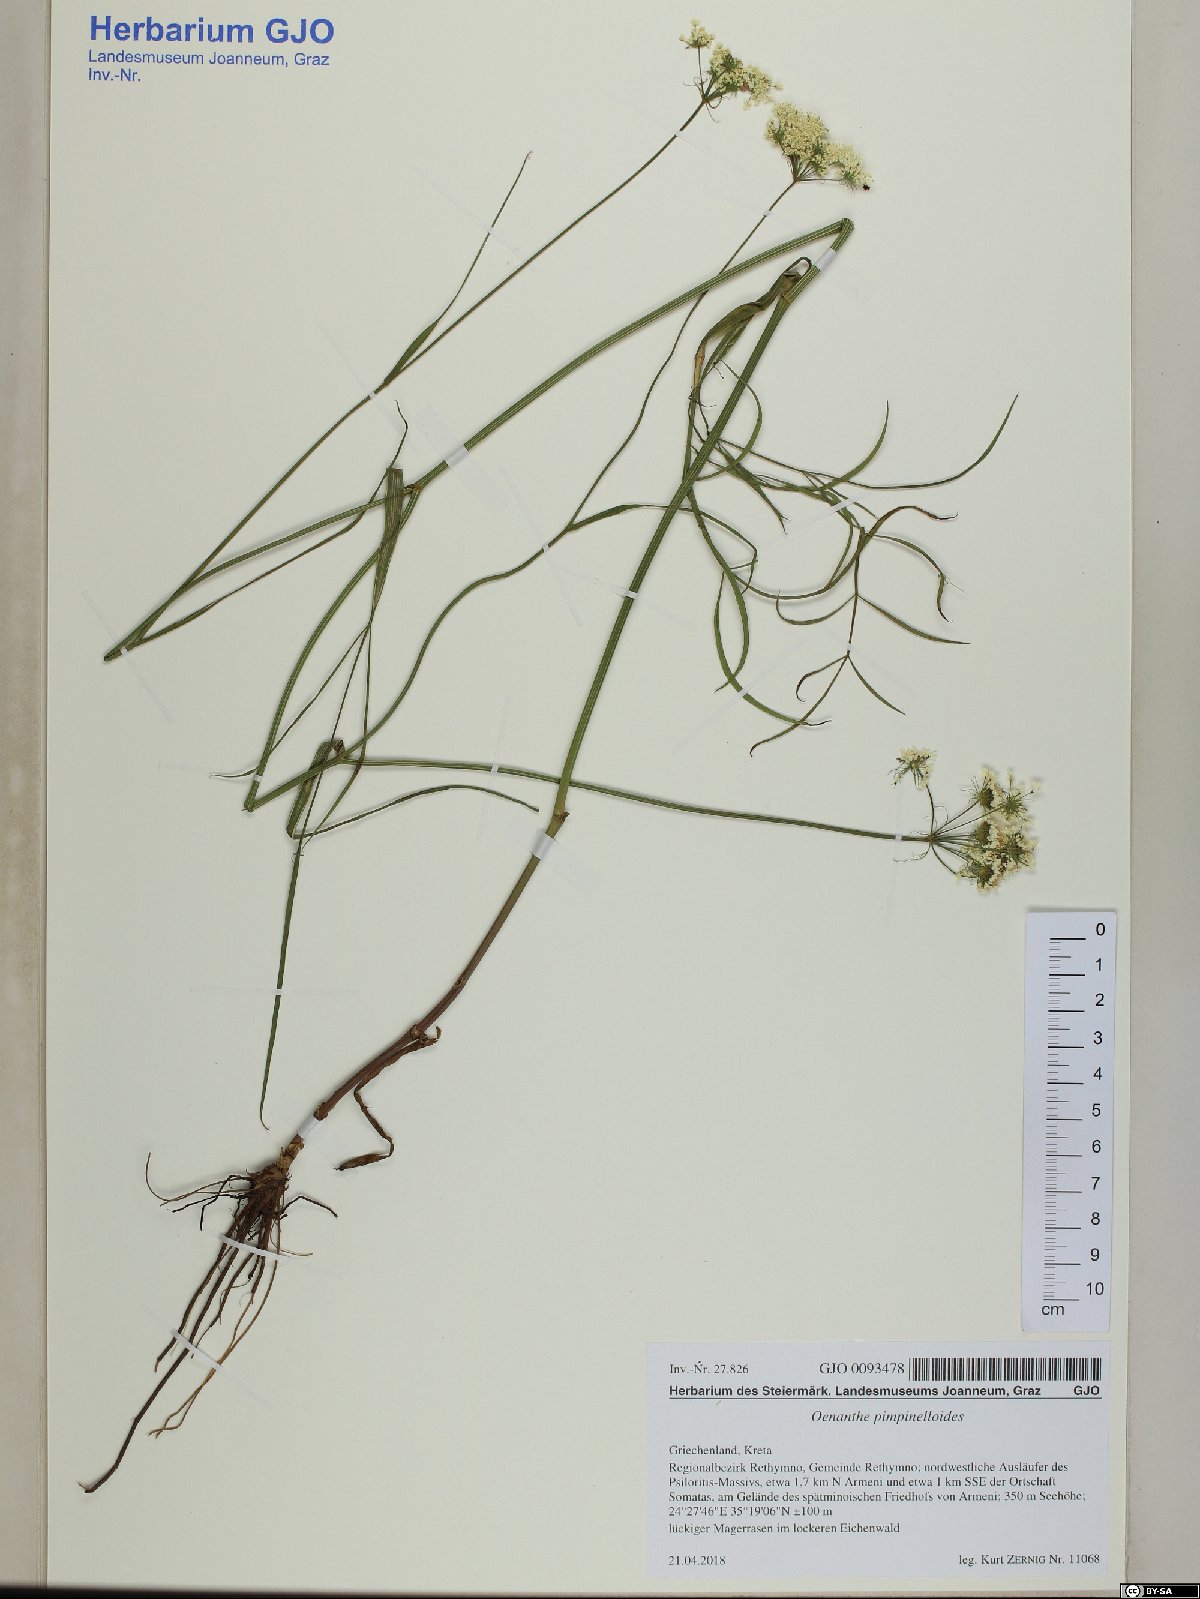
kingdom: Plantae
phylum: Tracheophyta
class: Magnoliopsida
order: Apiales
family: Apiaceae
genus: Oenanthe
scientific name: Oenanthe pimpinelloides
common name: Corky-fruited water-dropwort
